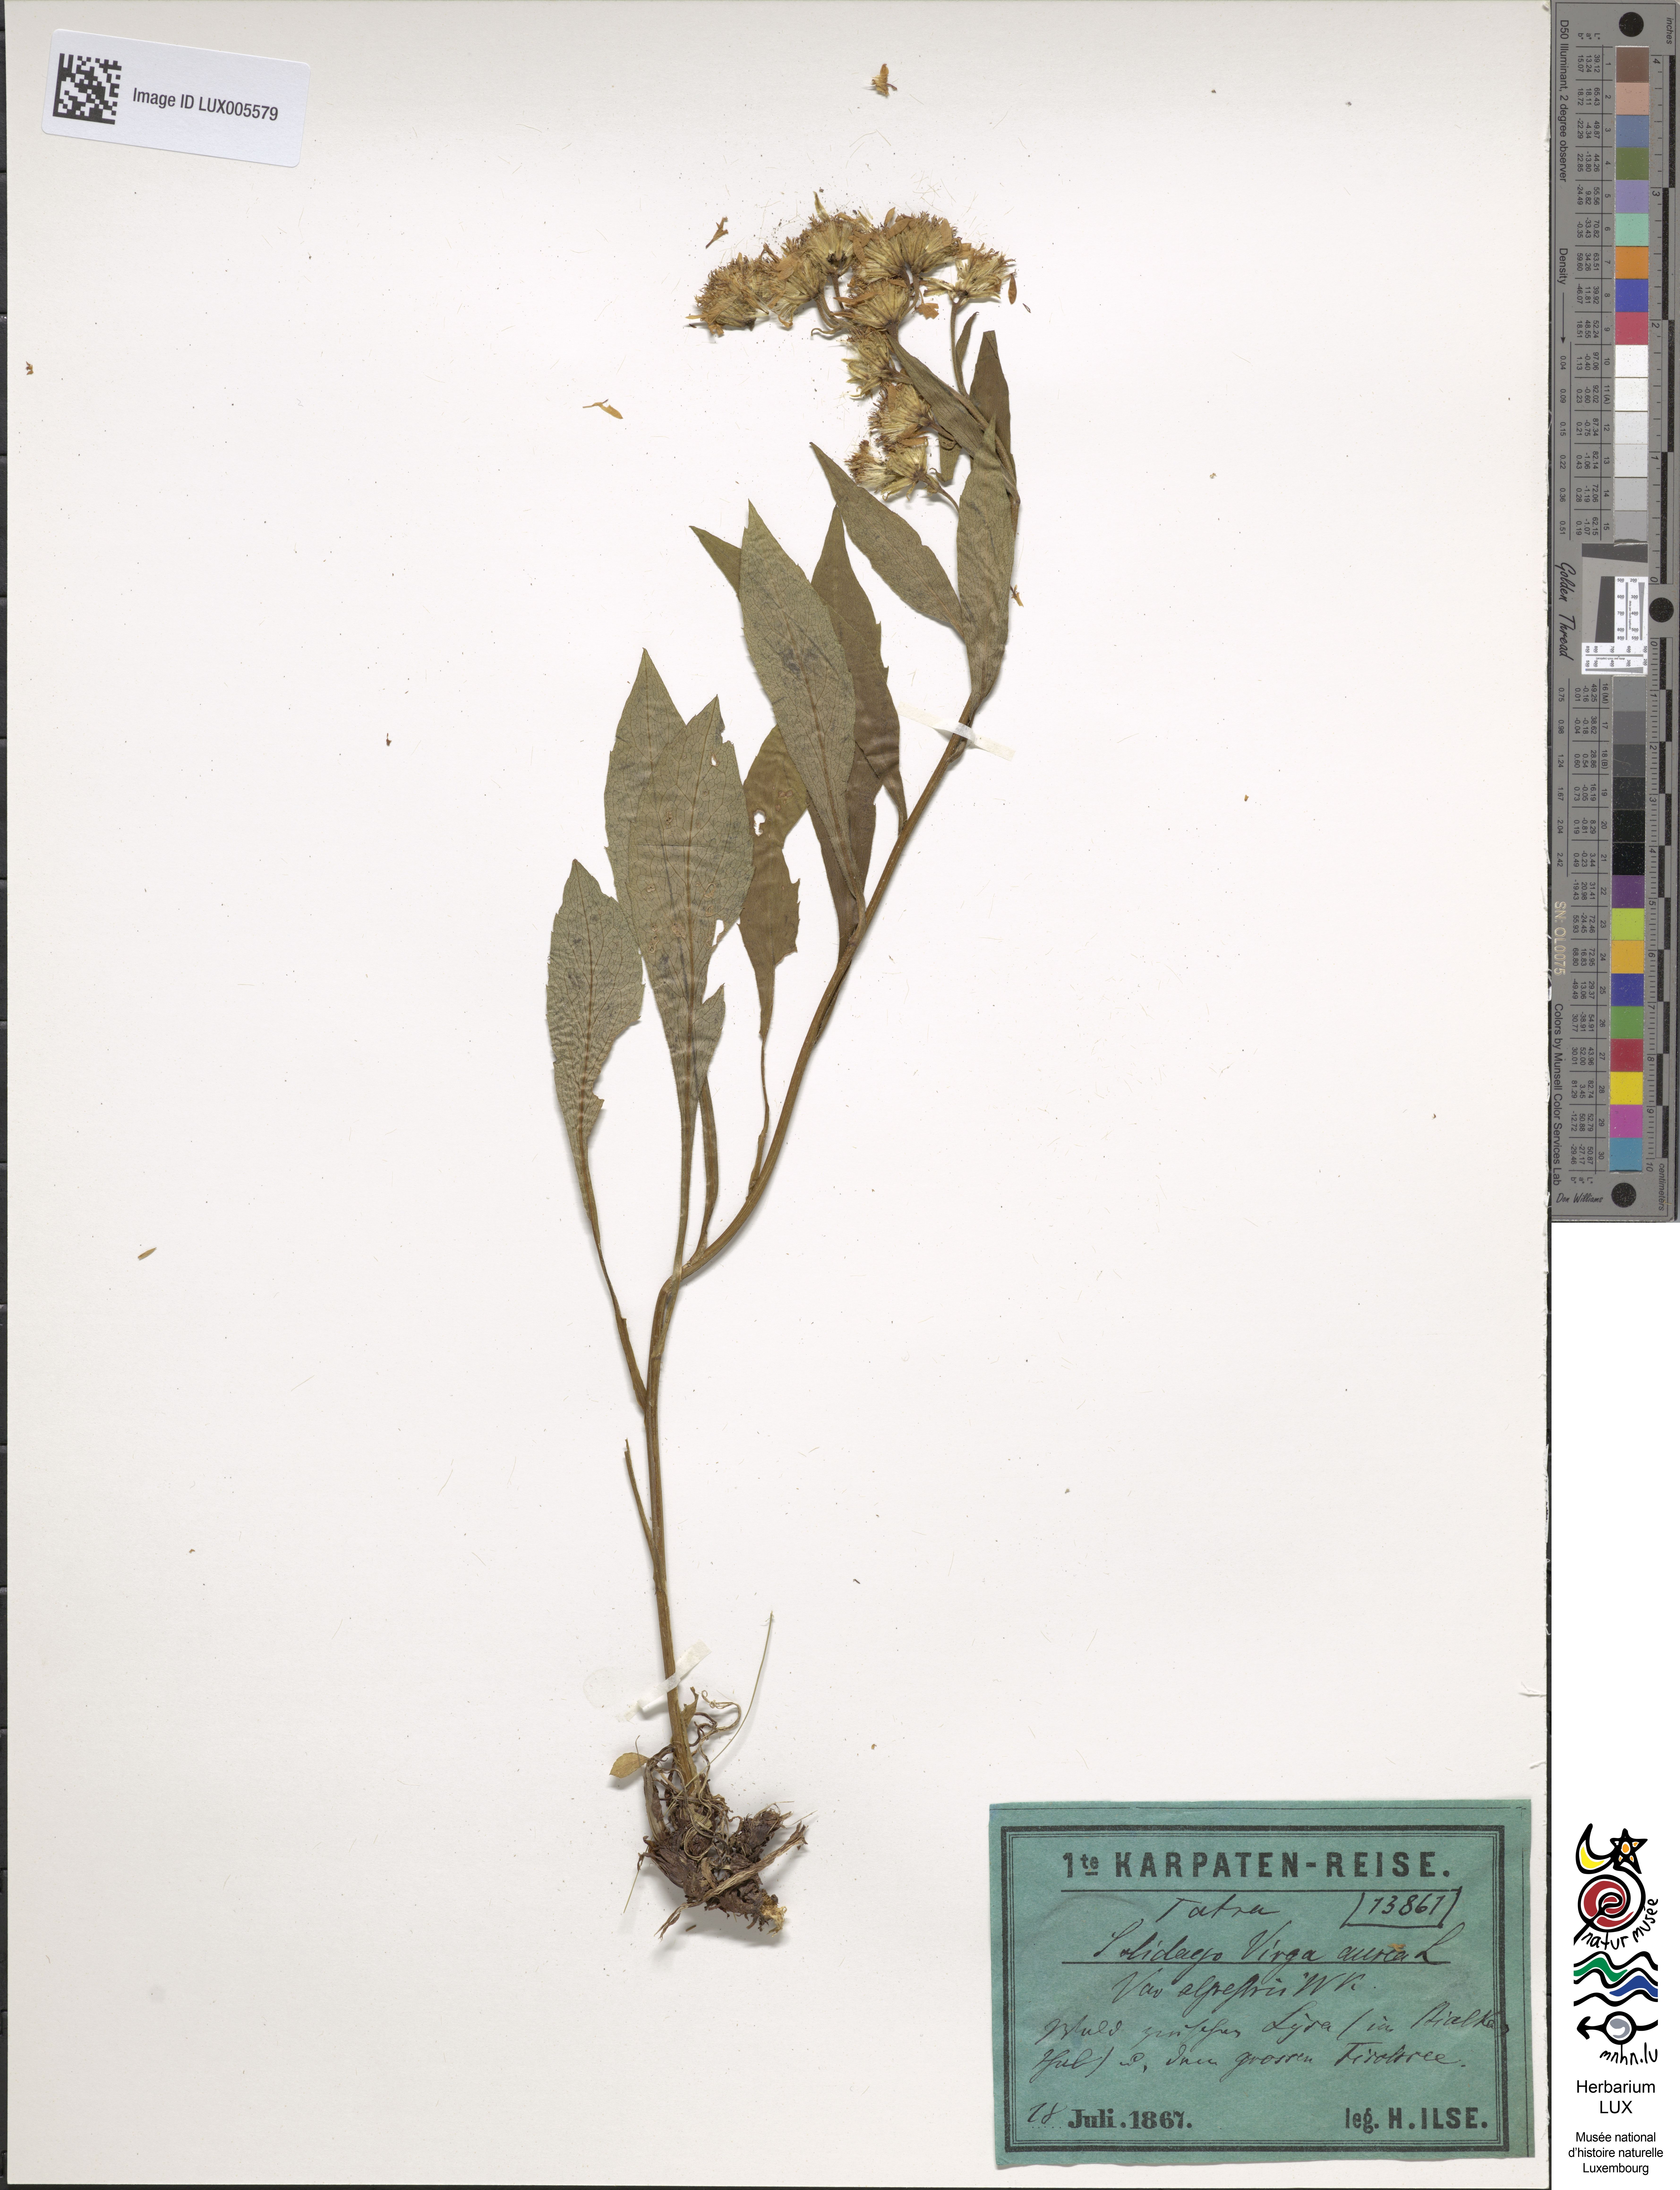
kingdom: Plantae
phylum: Tracheophyta
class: Magnoliopsida
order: Asterales
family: Asteraceae
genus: Solidago
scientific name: Solidago virgaurea
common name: Goldenrod
